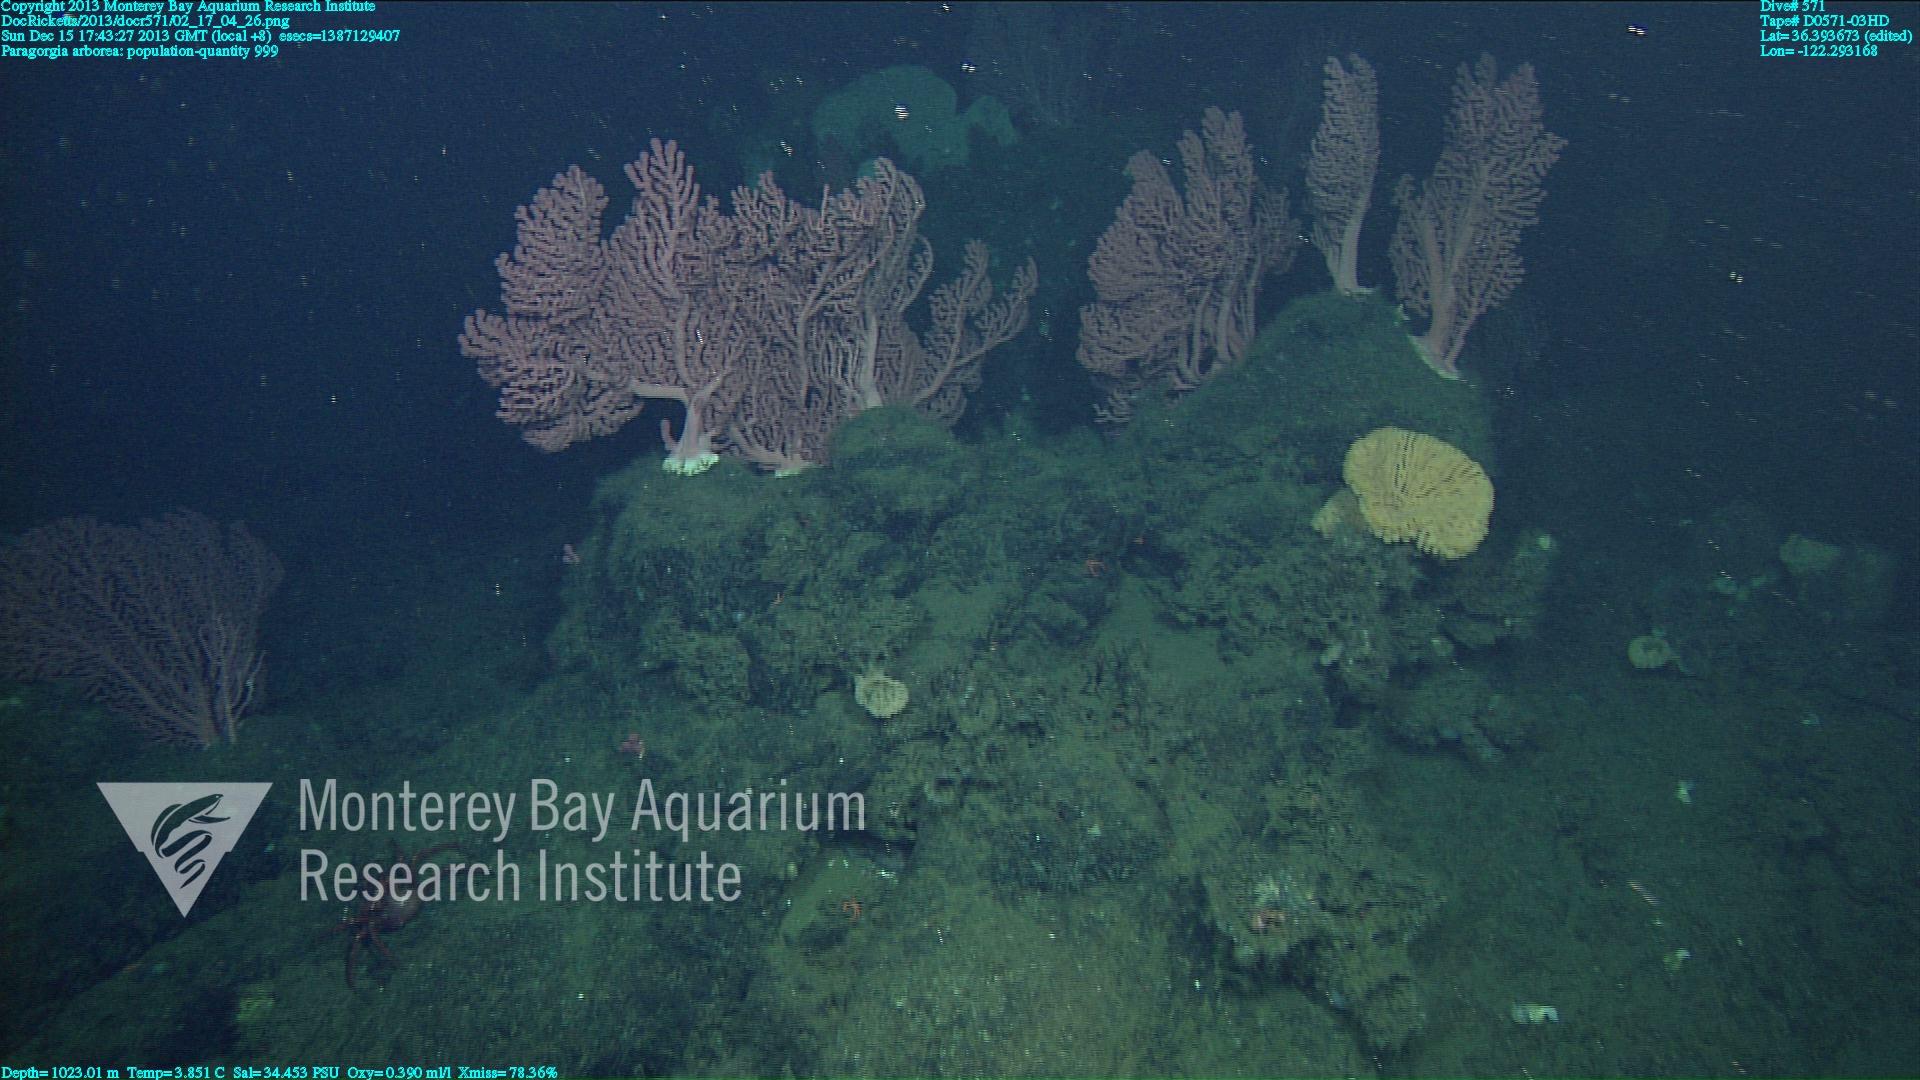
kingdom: Animalia
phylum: Cnidaria
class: Anthozoa
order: Scleralcyonacea
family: Coralliidae
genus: Paragorgia
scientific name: Paragorgia arborea
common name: Bubble gum coral
